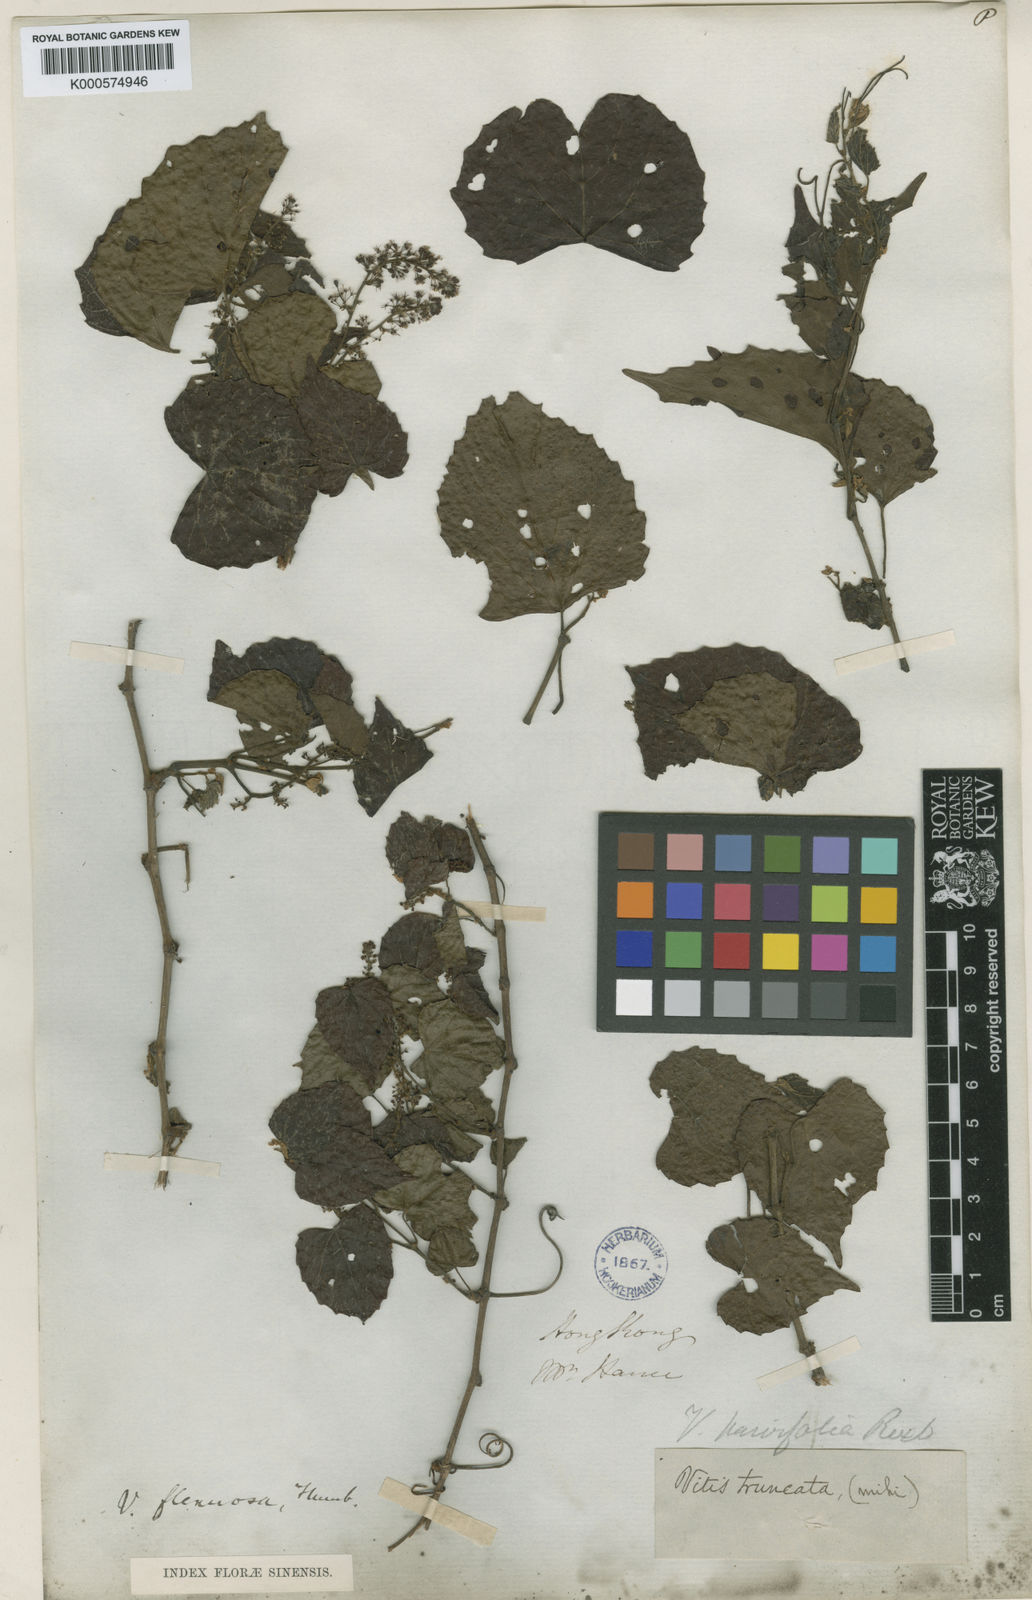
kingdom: Plantae
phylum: Tracheophyta
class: Magnoliopsida
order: Vitales
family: Vitaceae
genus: Vitis
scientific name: Vitis flexuosa
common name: Creeping grape
